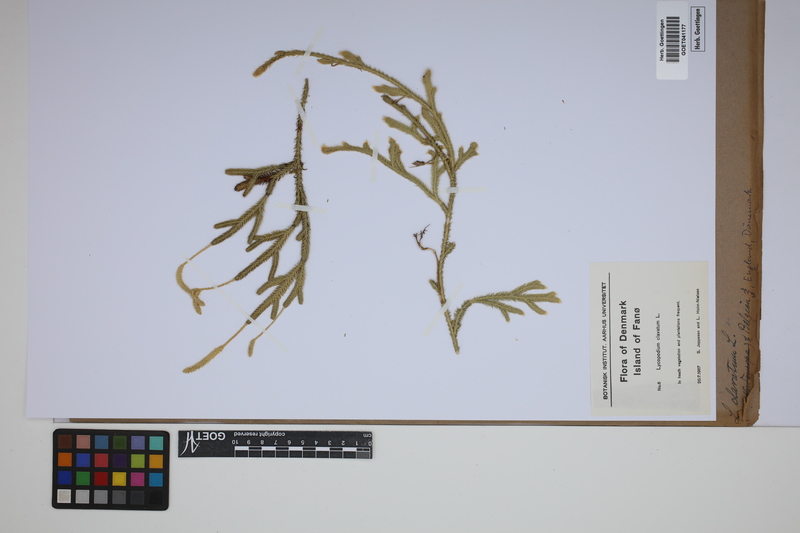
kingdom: Plantae
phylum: Tracheophyta
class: Lycopodiopsida
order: Lycopodiales
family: Lycopodiaceae
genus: Lycopodium
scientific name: Lycopodium clavatum
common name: Stag's-horn clubmoss
